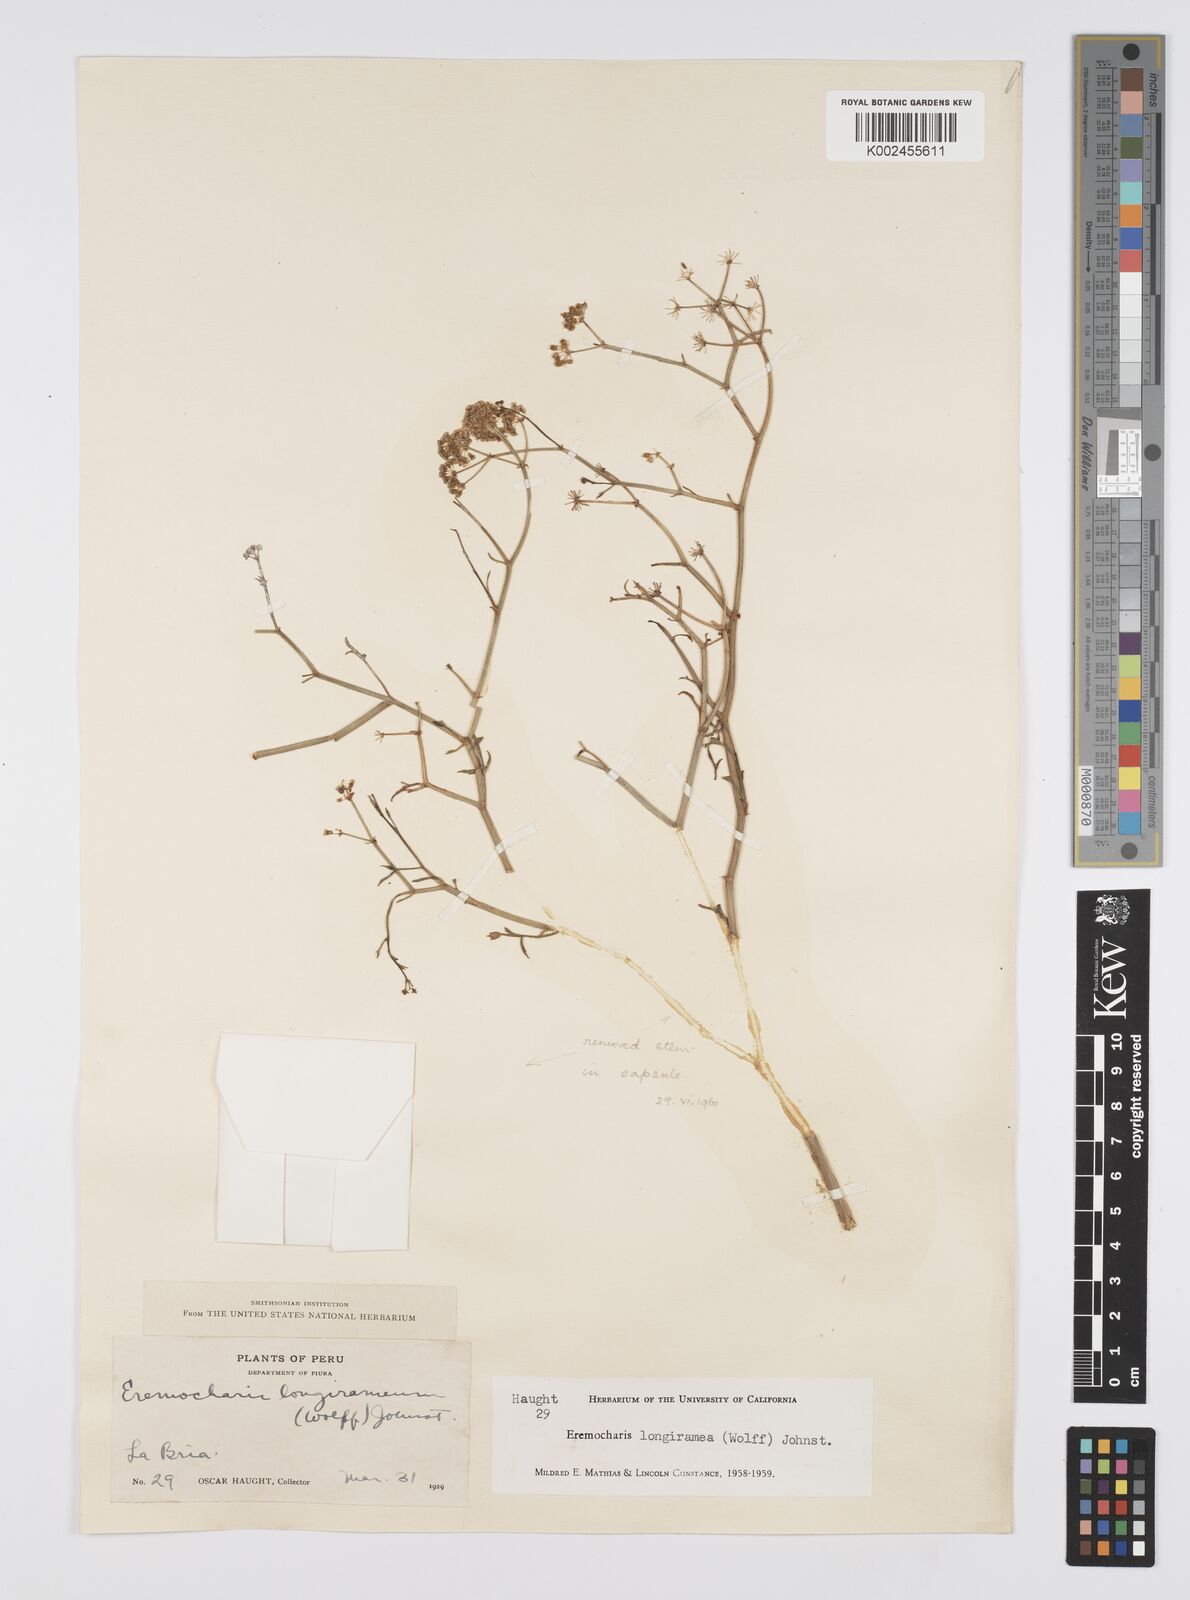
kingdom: Plantae
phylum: Tracheophyta
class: Magnoliopsida
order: Apiales
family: Apiaceae
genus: Eremocharis
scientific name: Eremocharis longiramea
